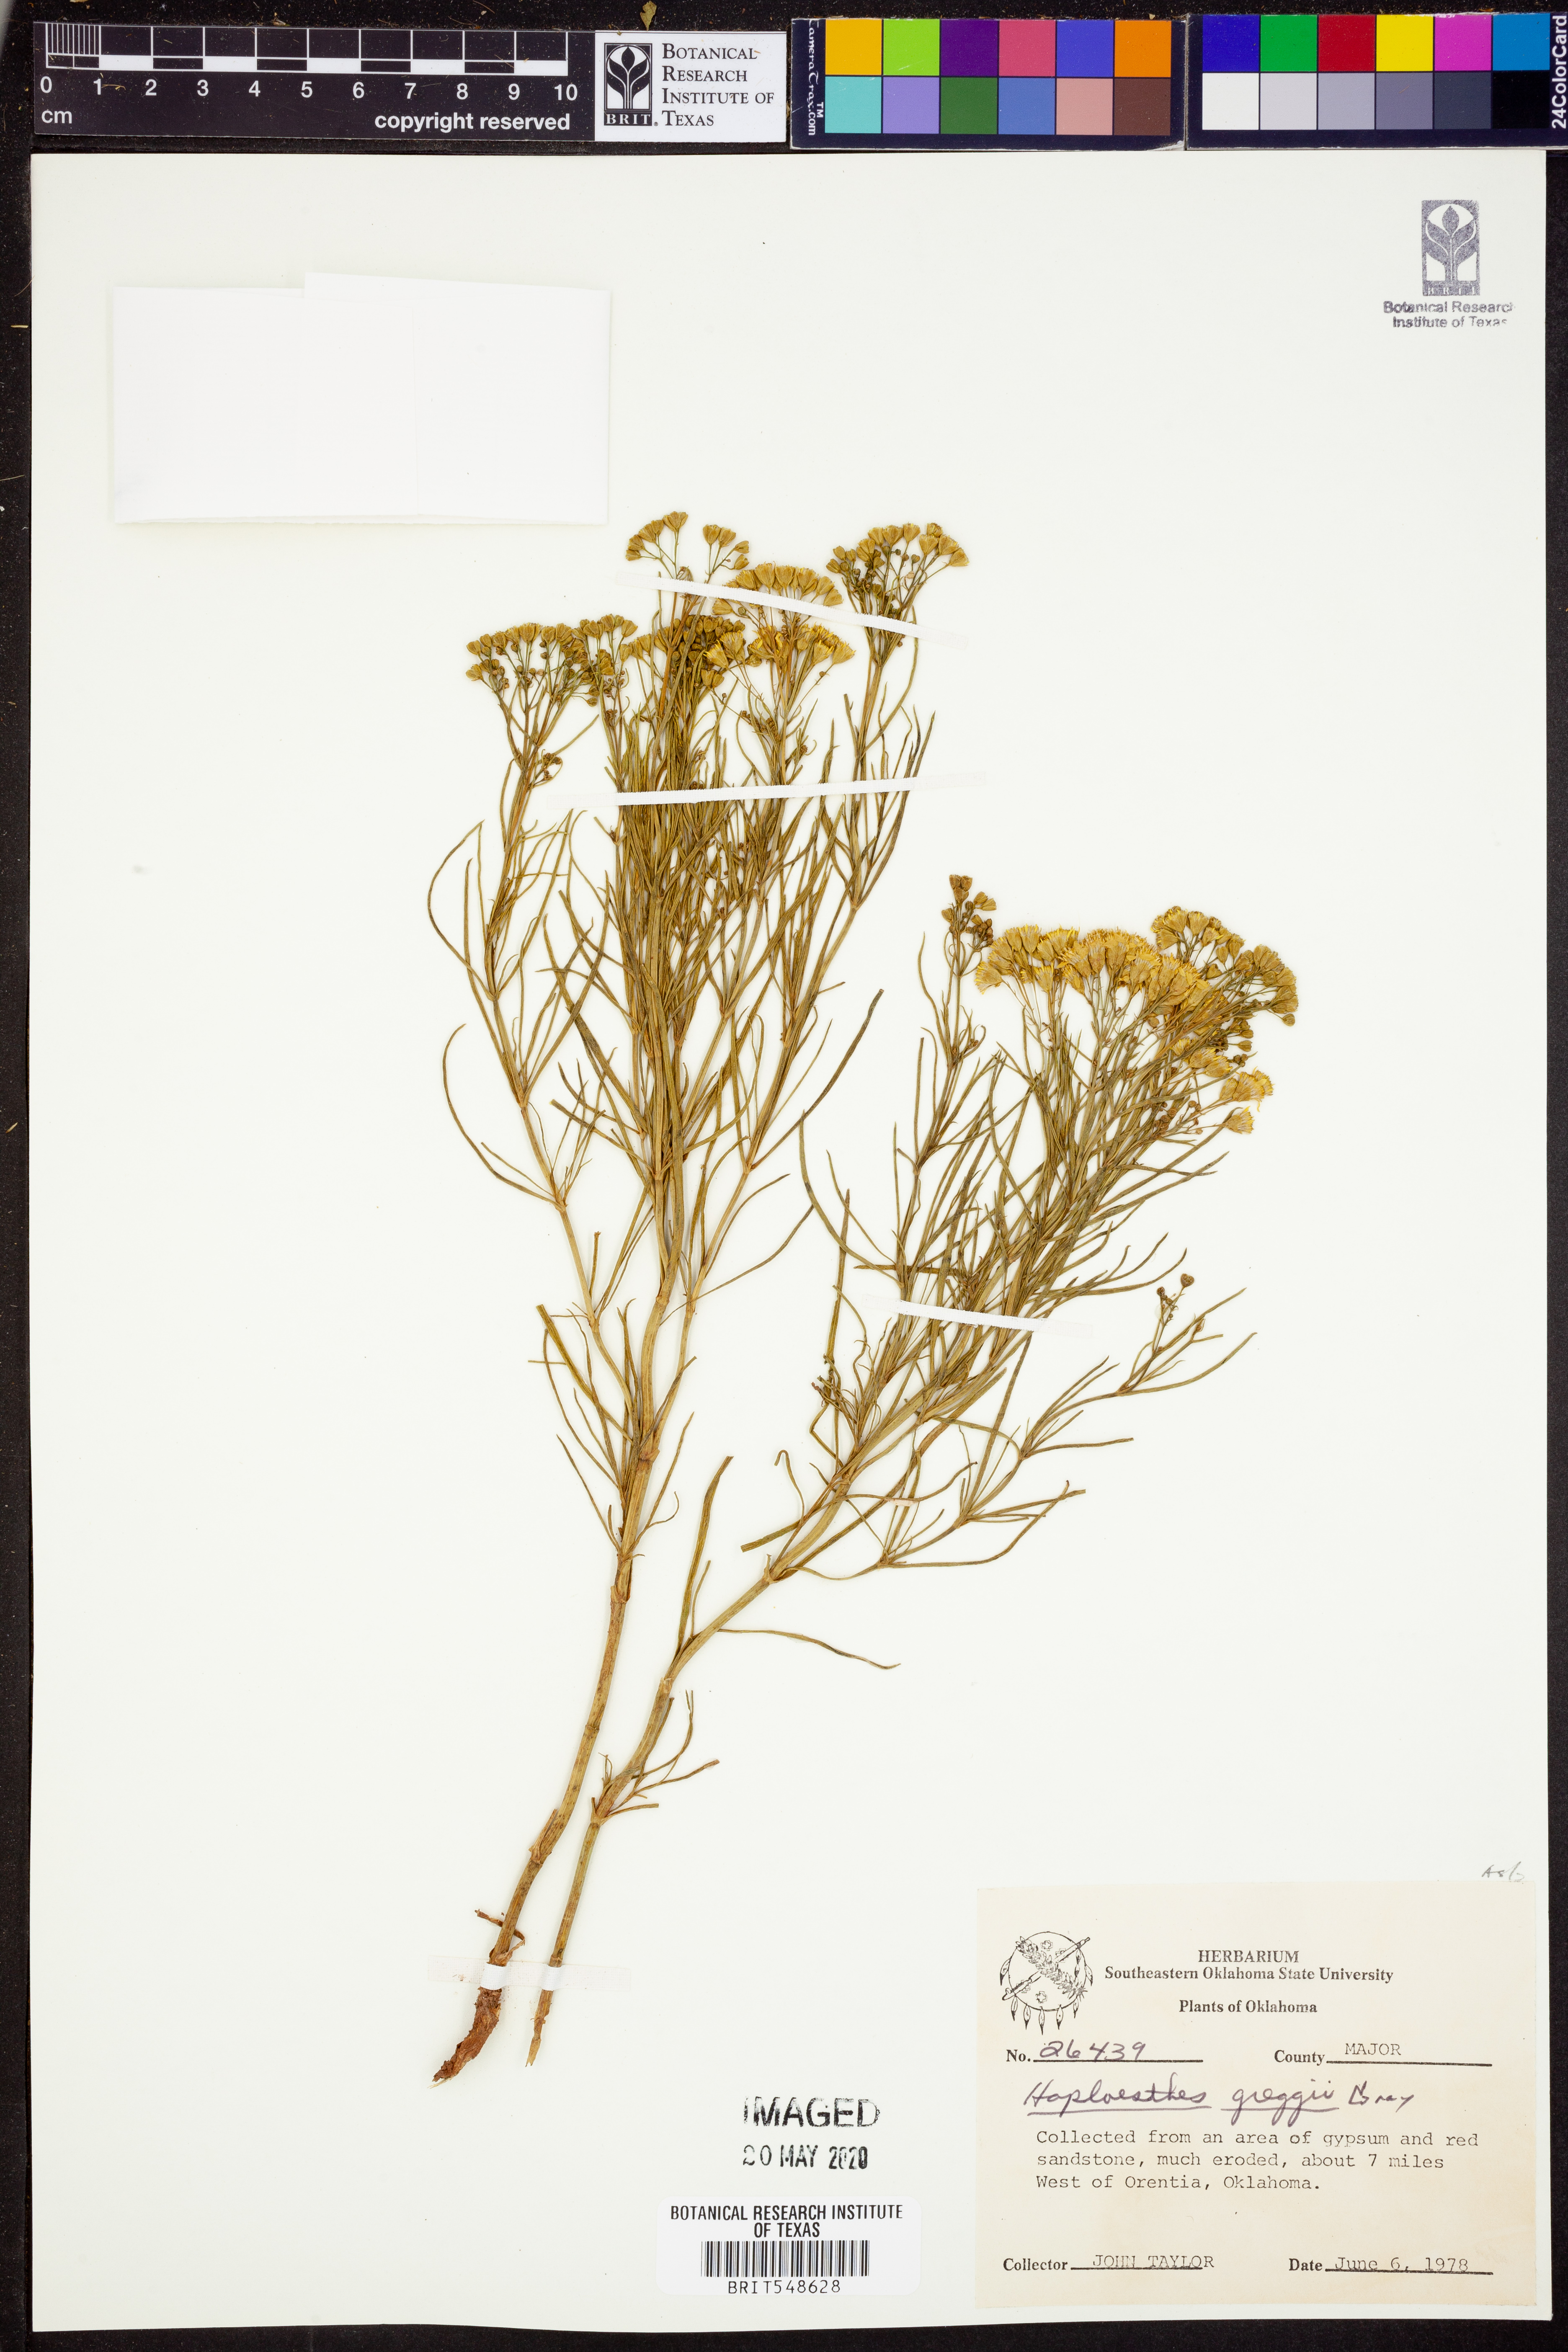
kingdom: Plantae
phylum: Tracheophyta
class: Magnoliopsida
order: Asterales
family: Asteraceae
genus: Haploesthes
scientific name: Haploesthes greggii
